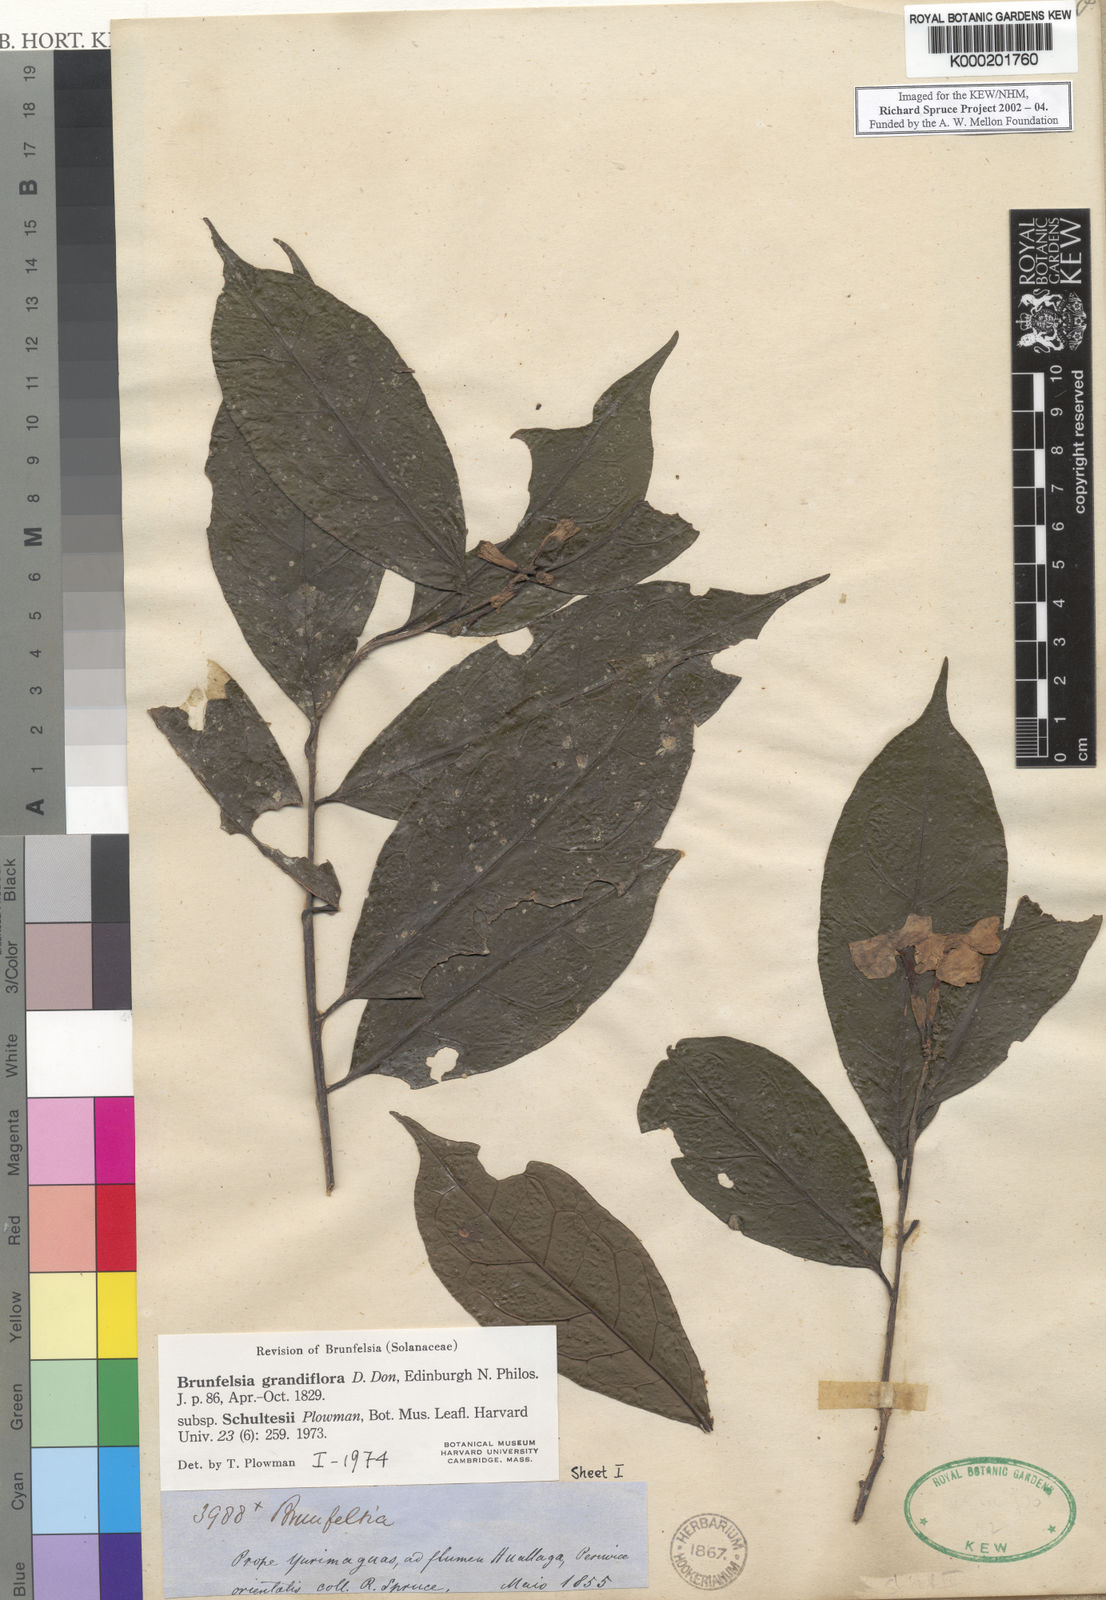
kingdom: Plantae
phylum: Tracheophyta
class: Magnoliopsida
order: Solanales
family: Solanaceae
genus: Brunfelsia
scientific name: Brunfelsia grandiflora
